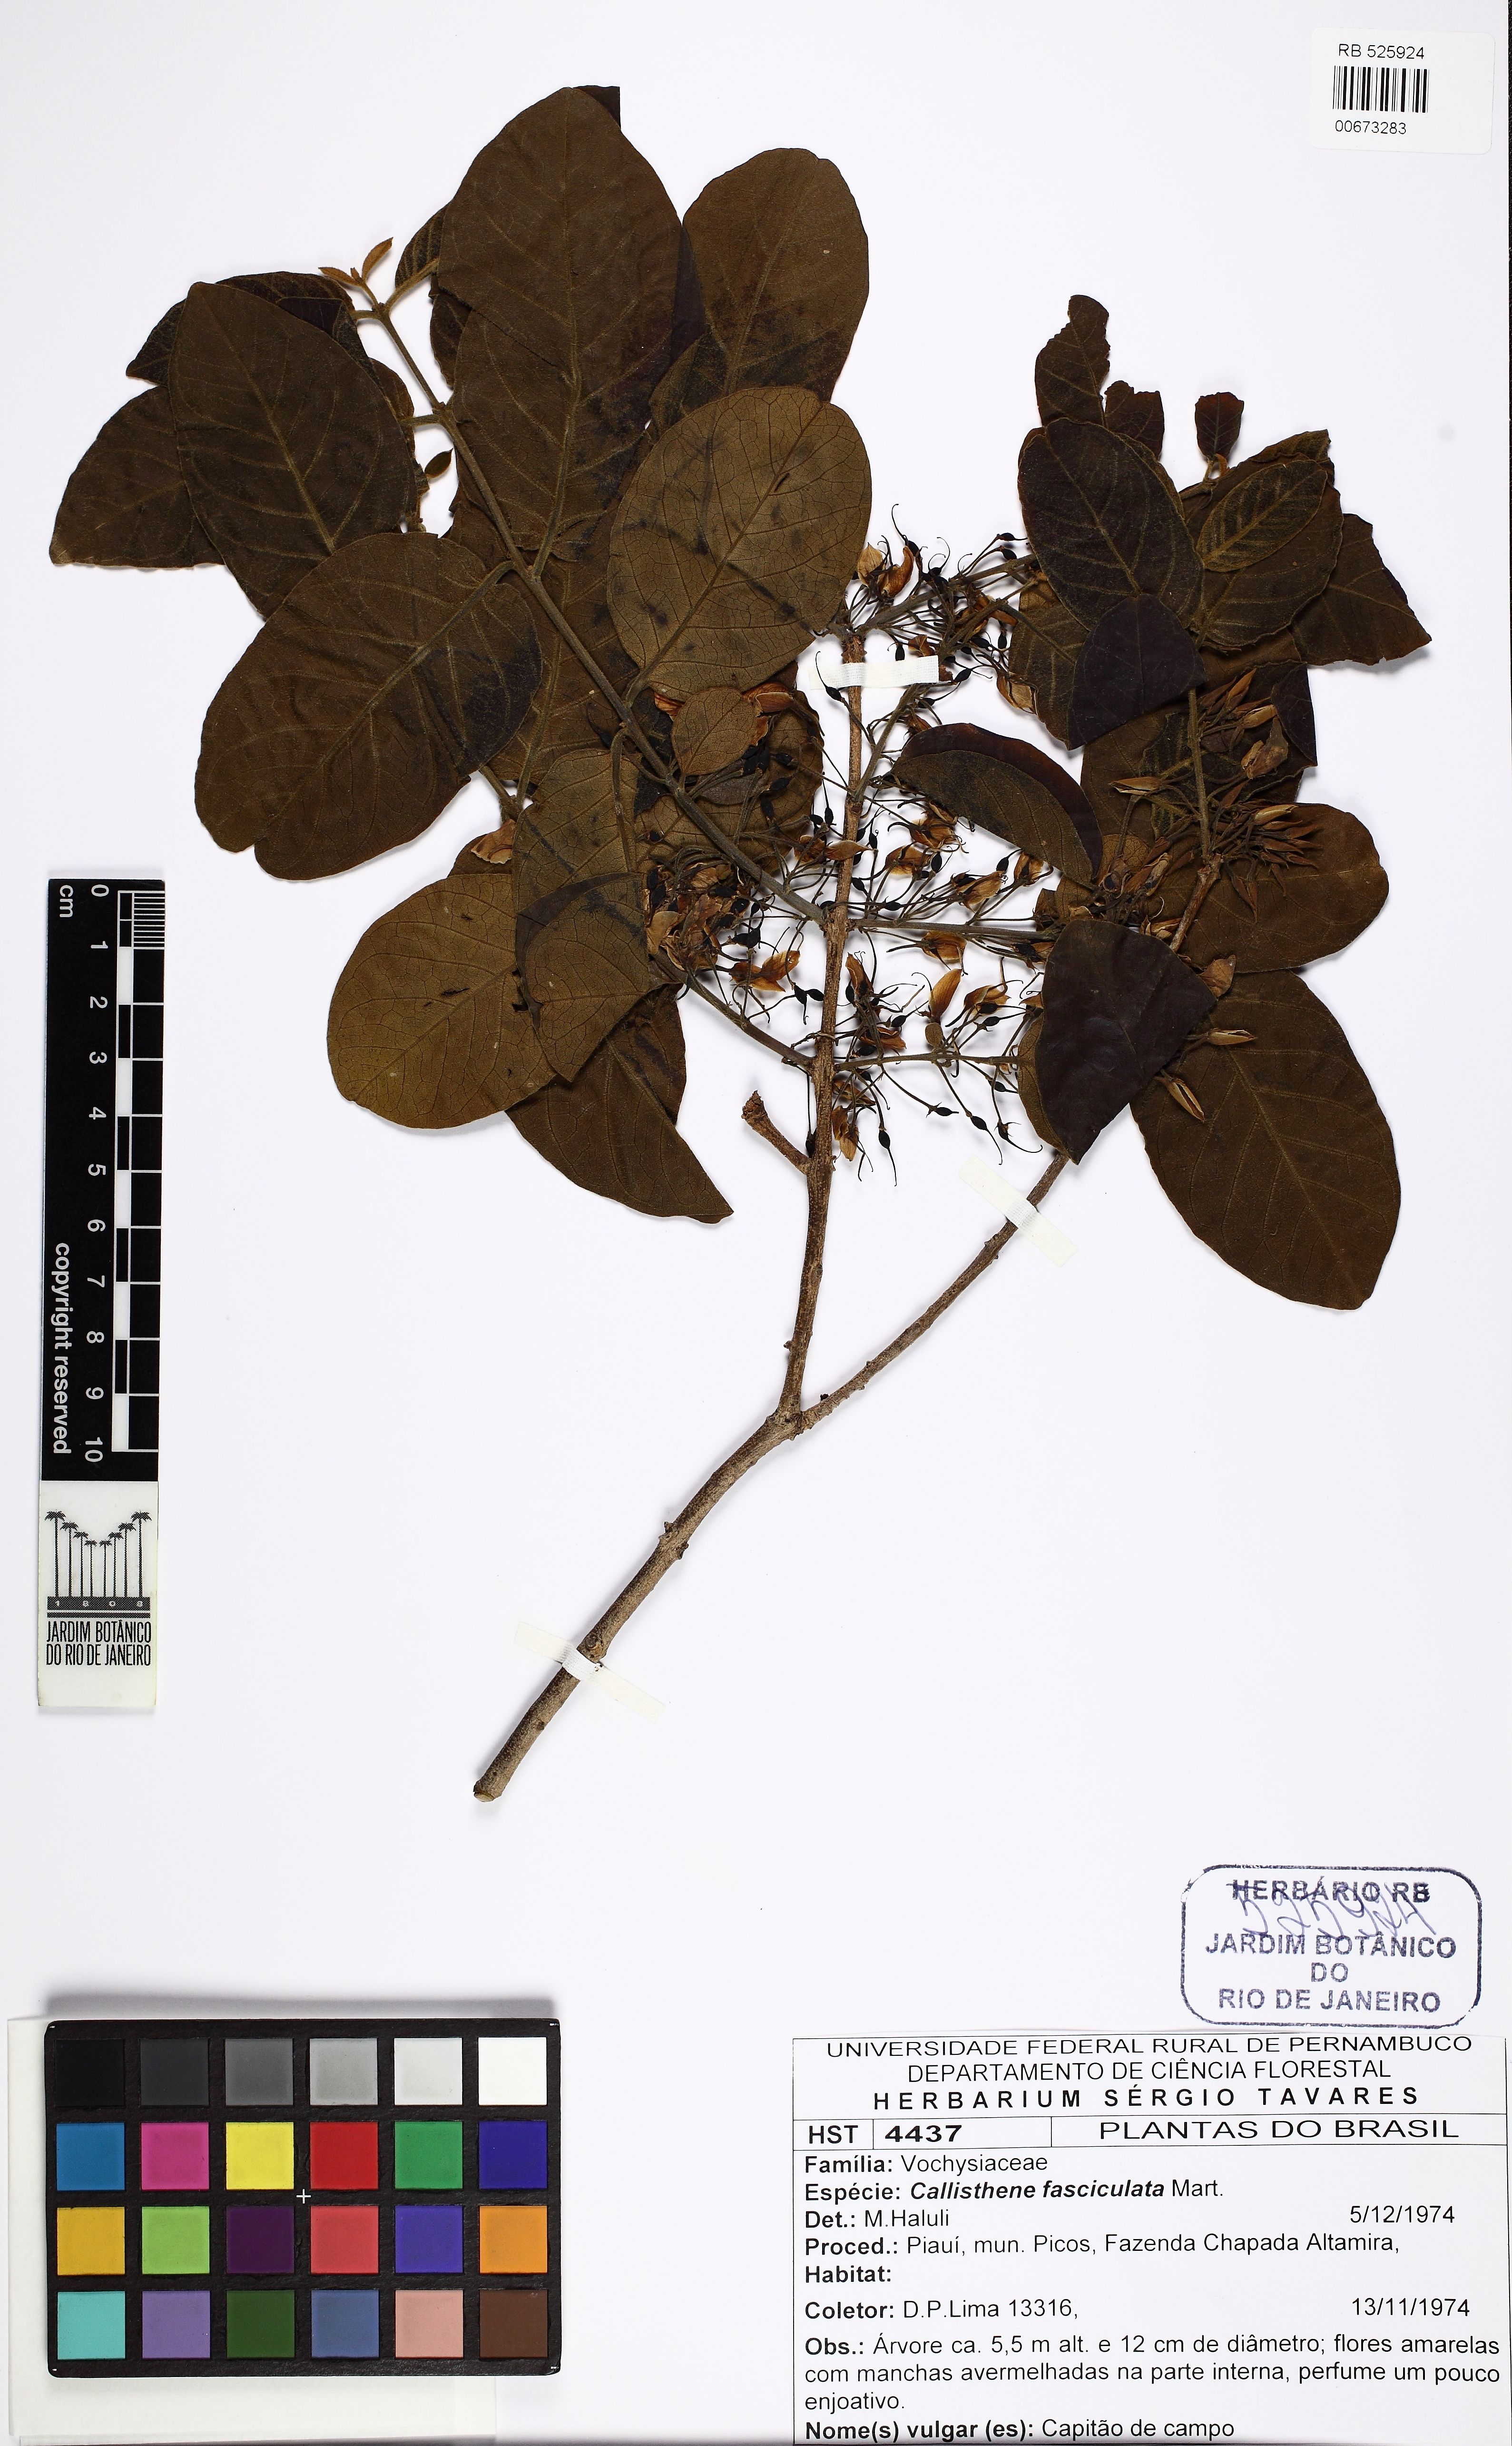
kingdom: Plantae
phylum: Tracheophyta
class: Magnoliopsida
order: Myrtales
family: Vochysiaceae
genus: Callisthene
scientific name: Callisthene fasciculata
